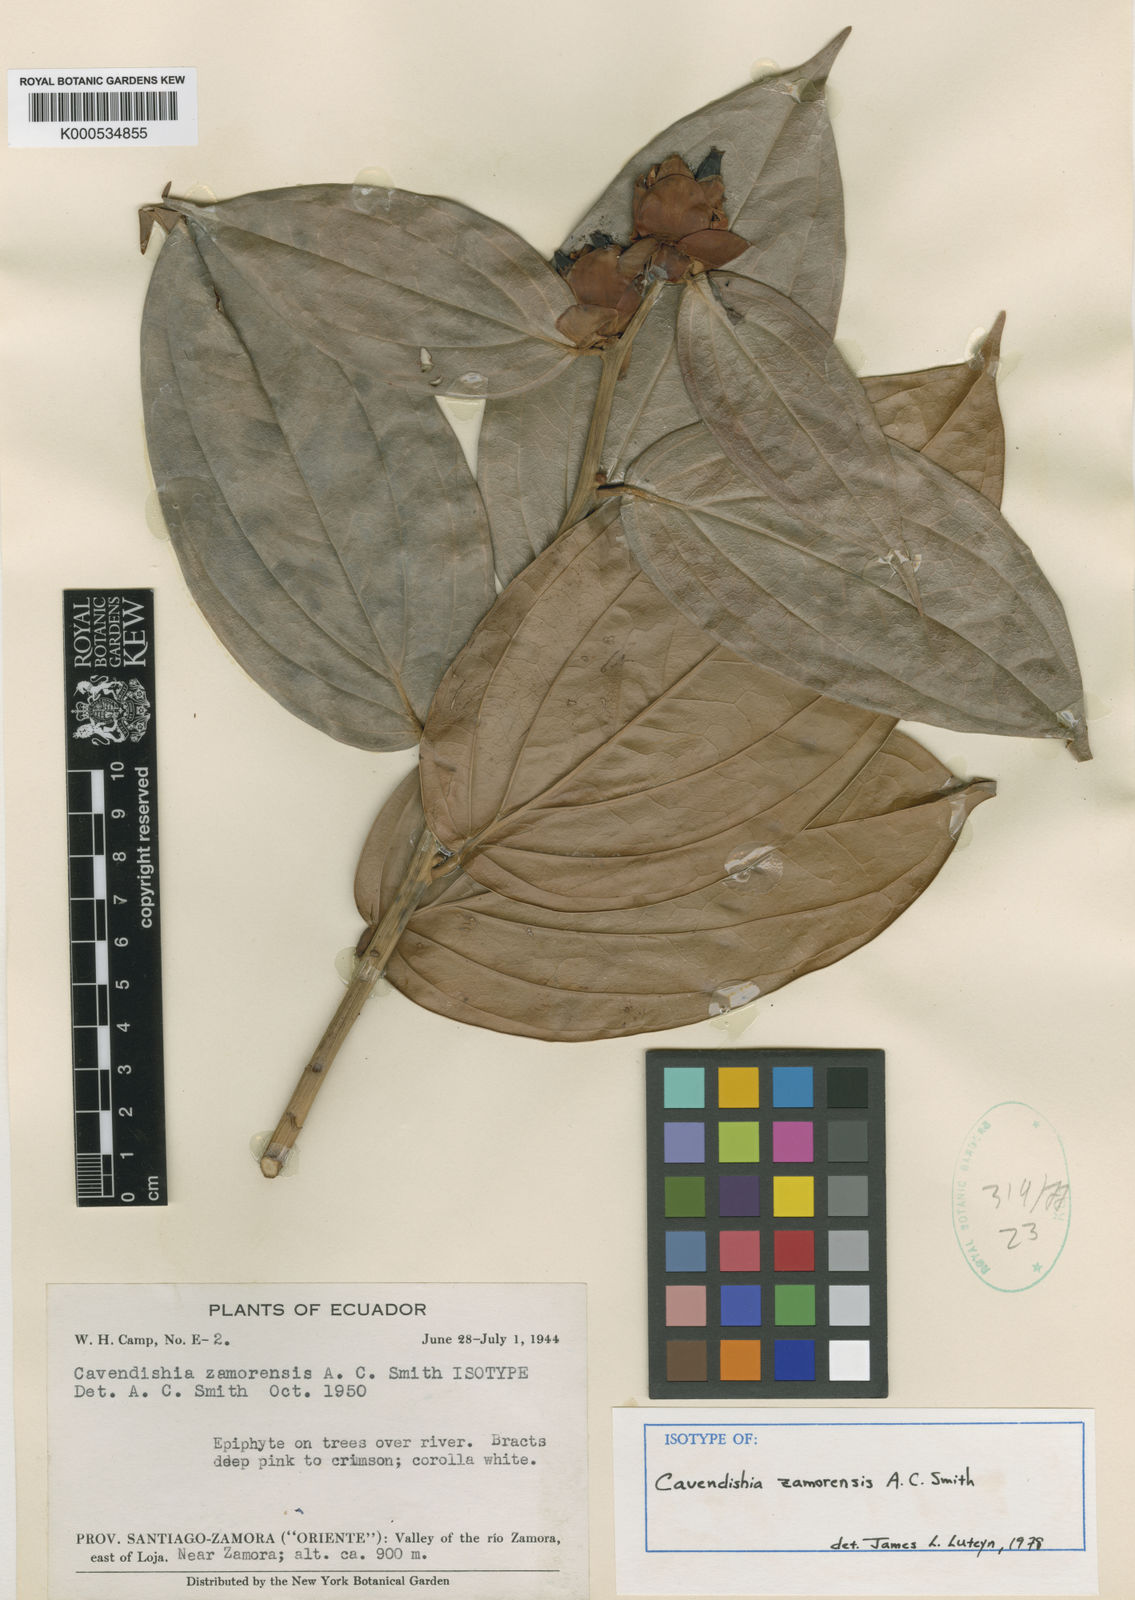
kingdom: Plantae
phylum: Tracheophyta
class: Magnoliopsida
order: Ericales
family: Ericaceae
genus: Cavendishia
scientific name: Cavendishia zamorensis
